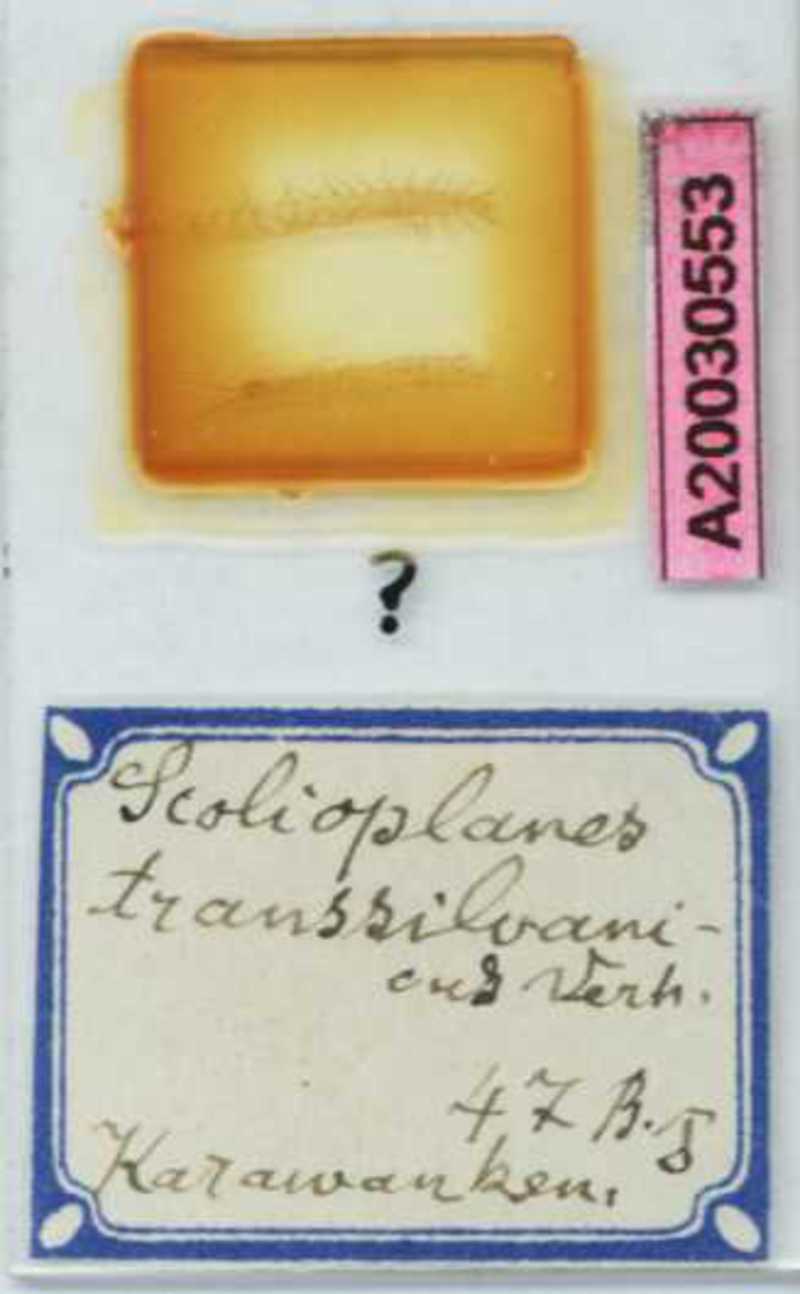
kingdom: Animalia
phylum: Arthropoda
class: Chilopoda
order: Geophilomorpha
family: Linotaeniidae
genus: Strigamia
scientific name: Strigamia transsilvanica
